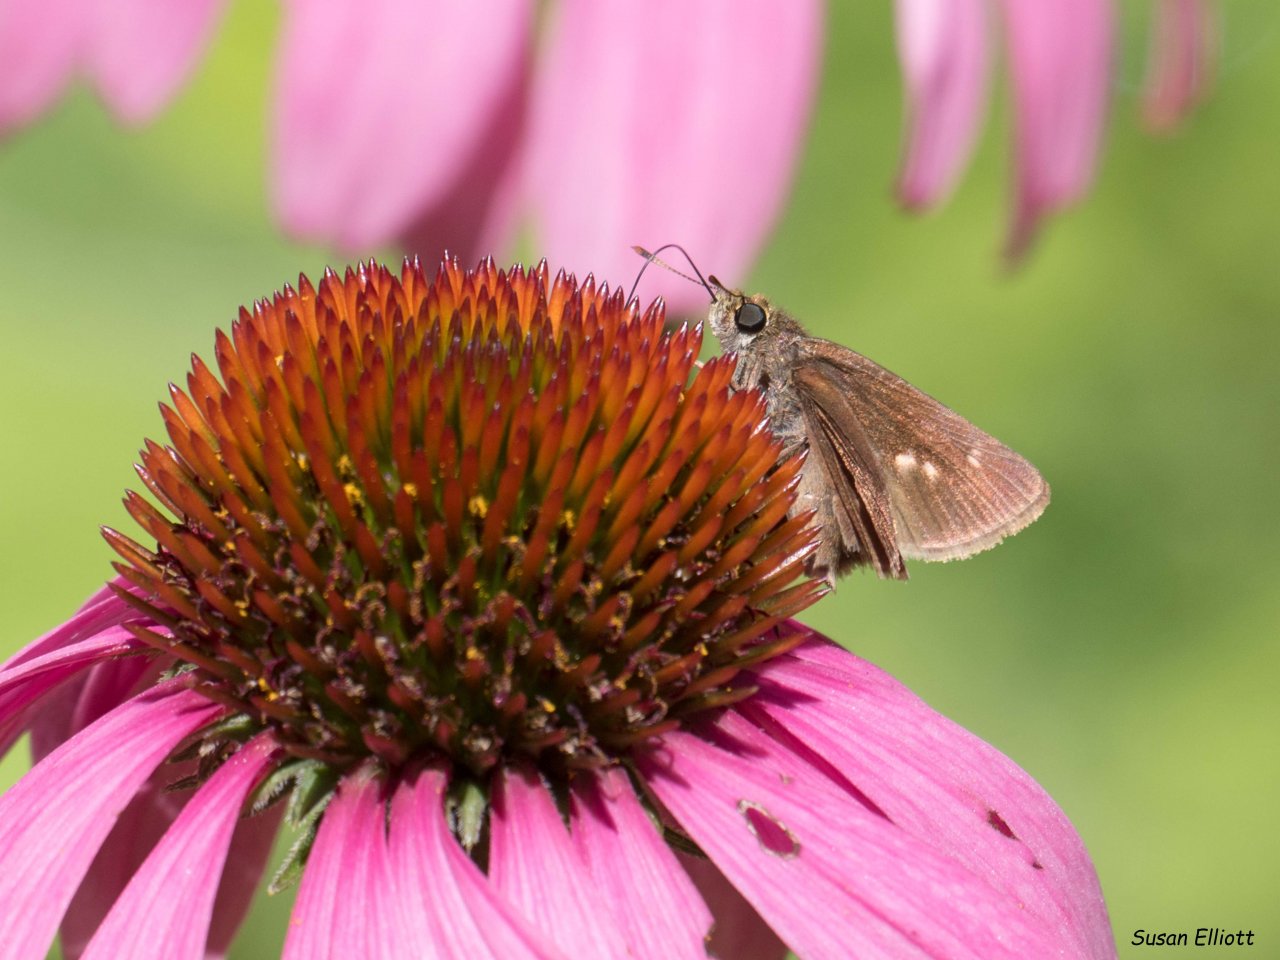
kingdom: Animalia
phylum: Arthropoda
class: Insecta
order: Lepidoptera
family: Hesperiidae
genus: Euphyes
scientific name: Euphyes vestris
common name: Dun Skipper
